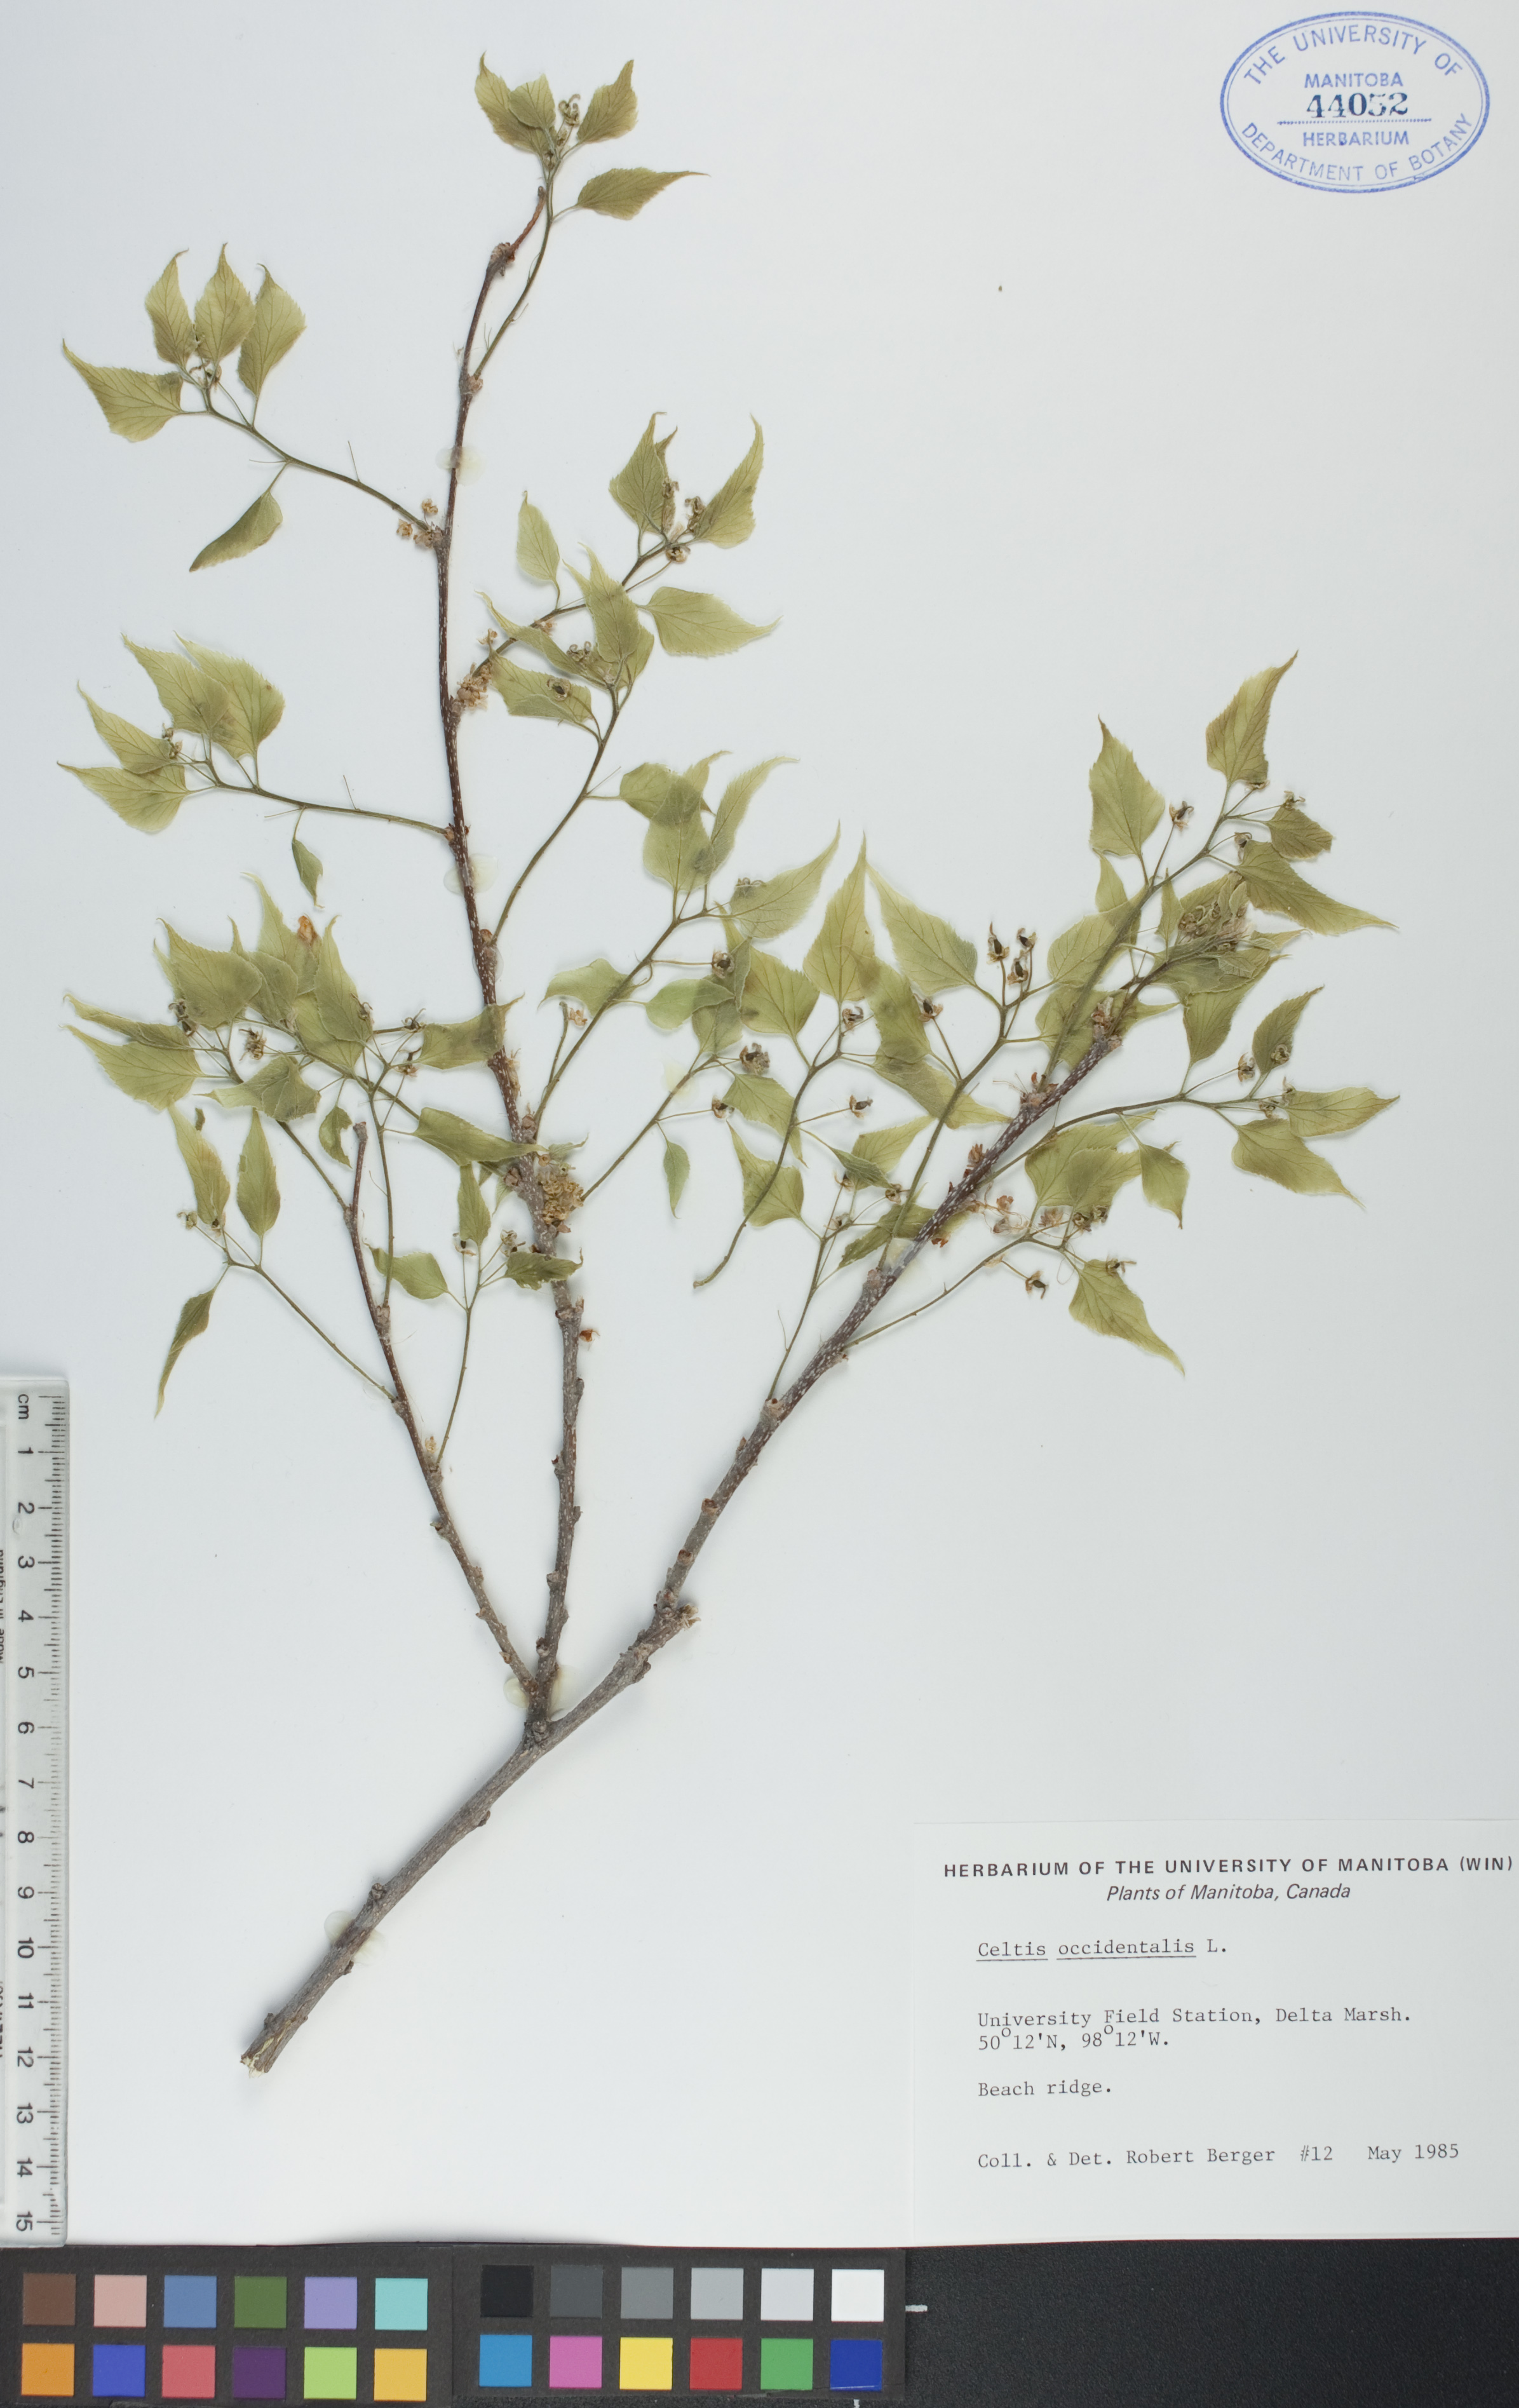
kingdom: Plantae
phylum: Tracheophyta
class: Magnoliopsida
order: Rosales
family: Cannabaceae
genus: Celtis
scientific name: Celtis occidentalis
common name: Common hackberry
